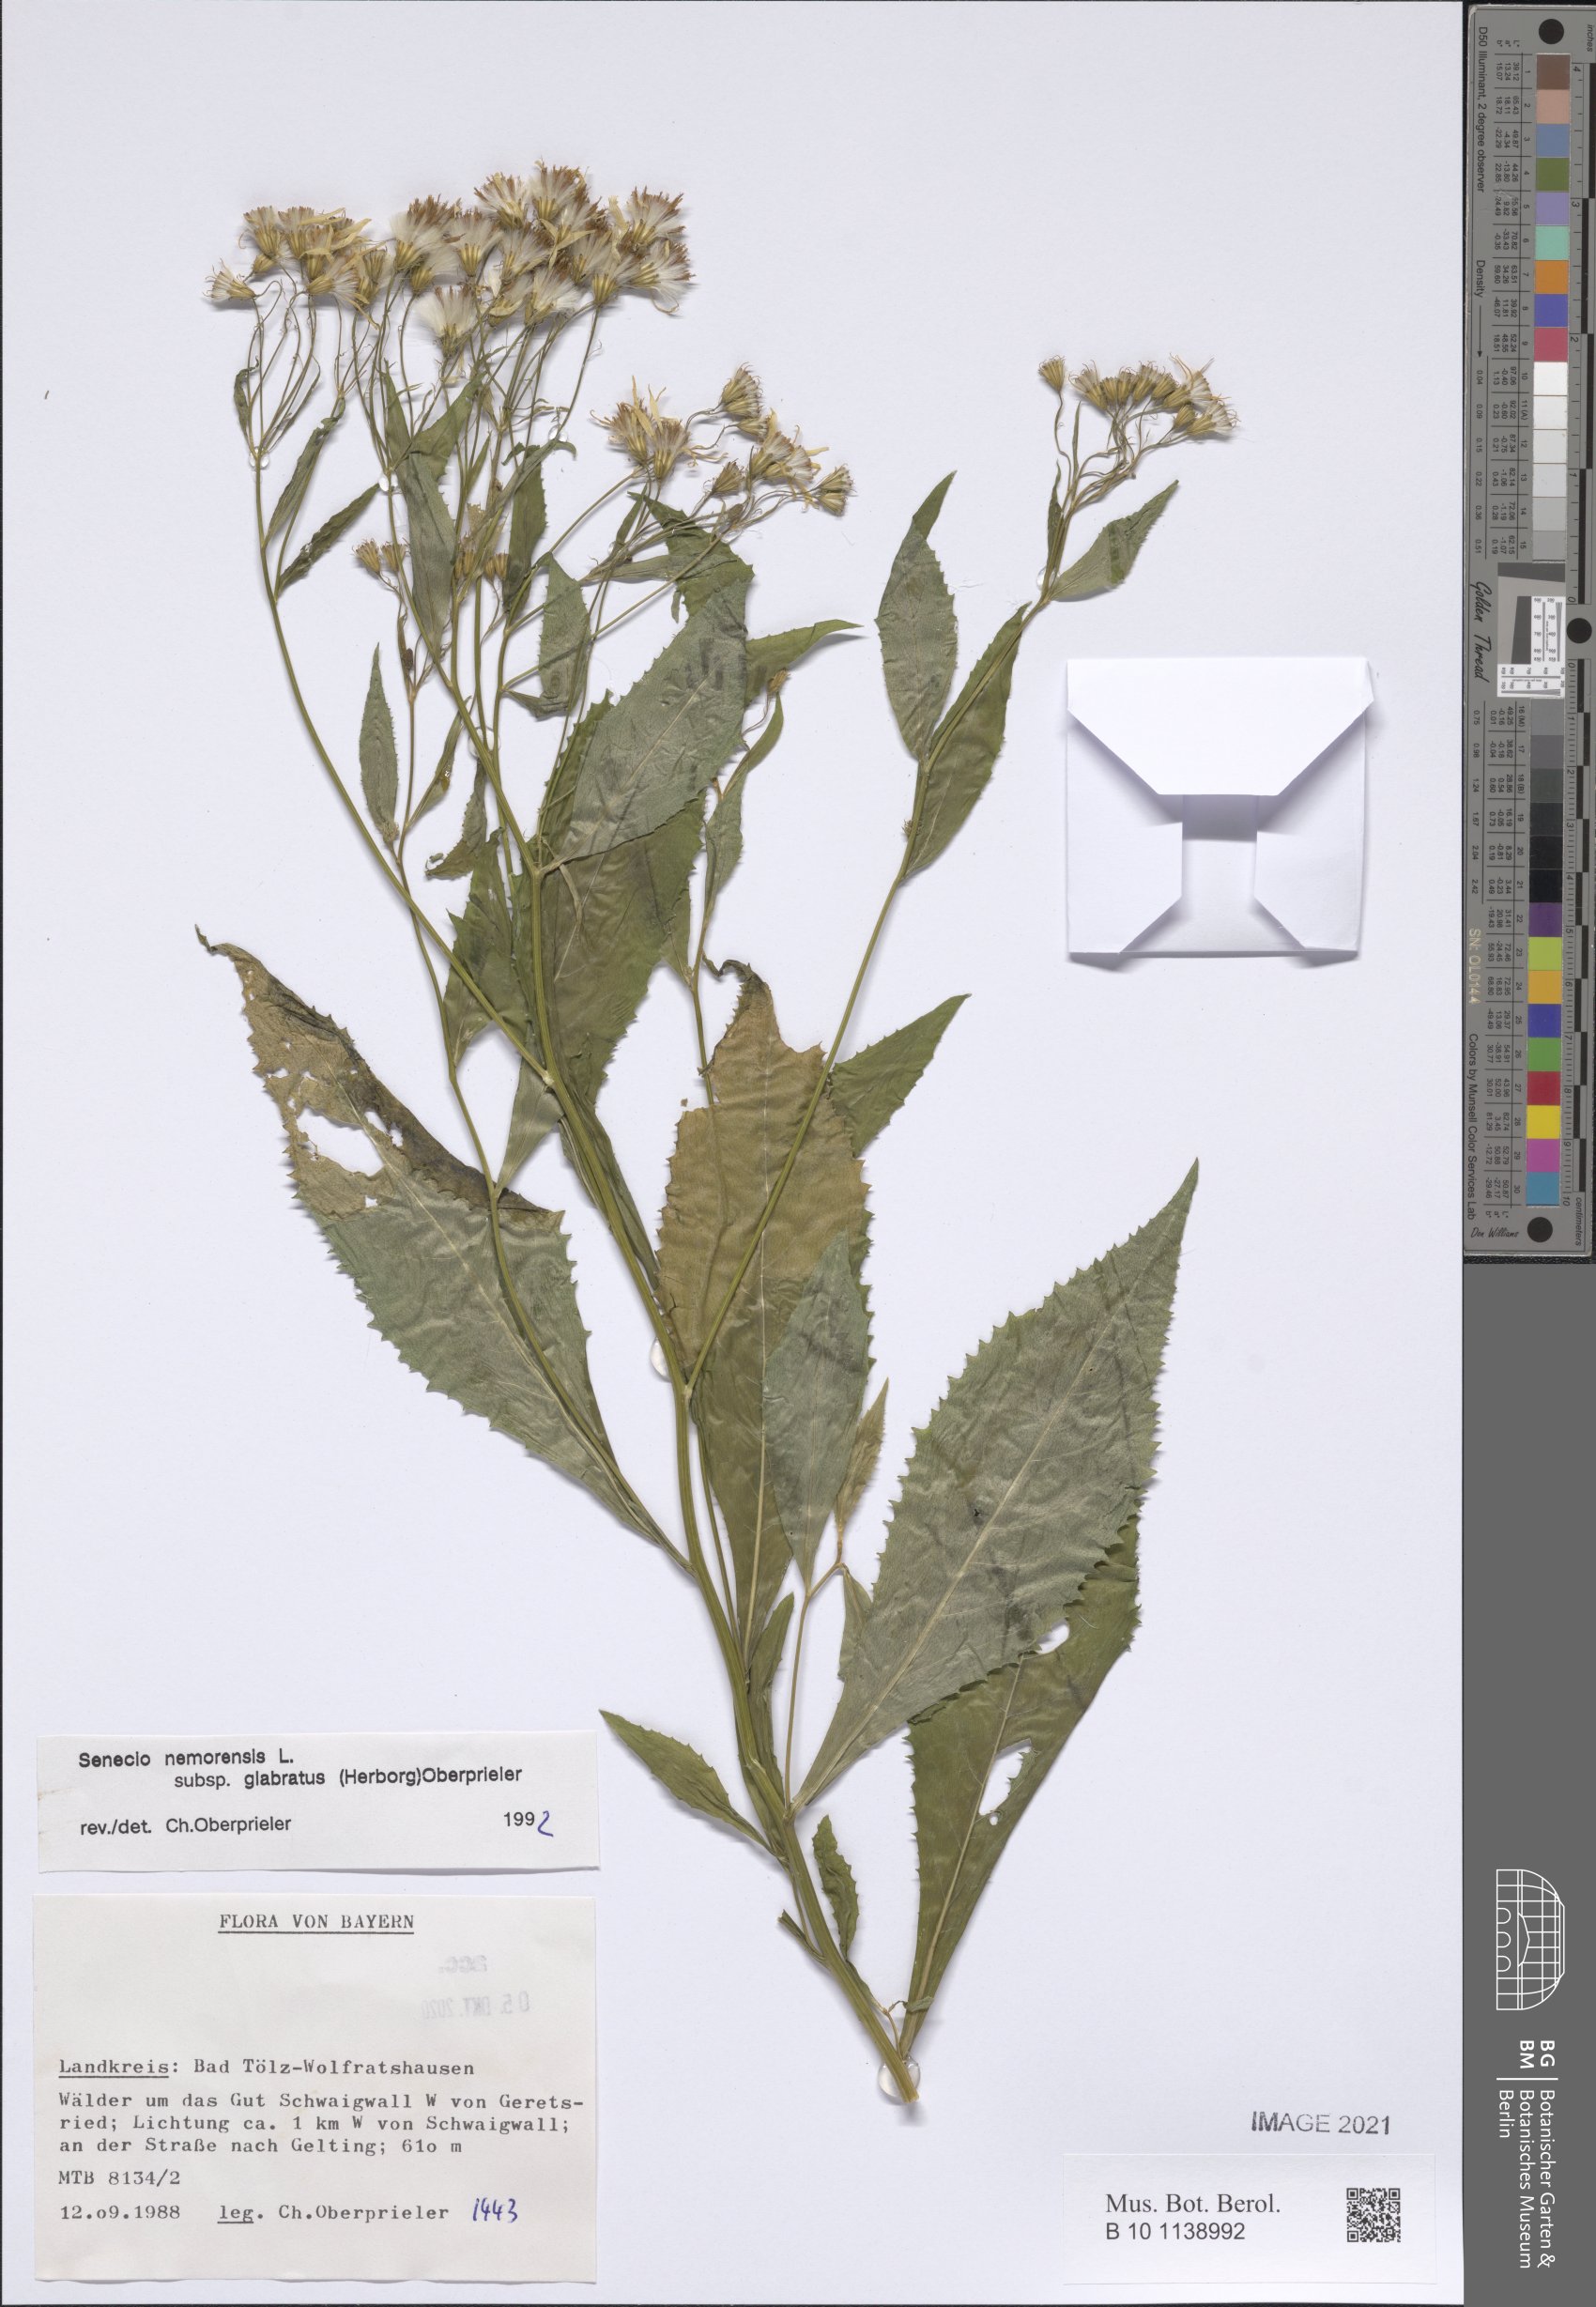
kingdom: Plantae
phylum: Tracheophyta
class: Magnoliopsida
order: Asterales
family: Asteraceae
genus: Senecio
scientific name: Senecio germanicus
